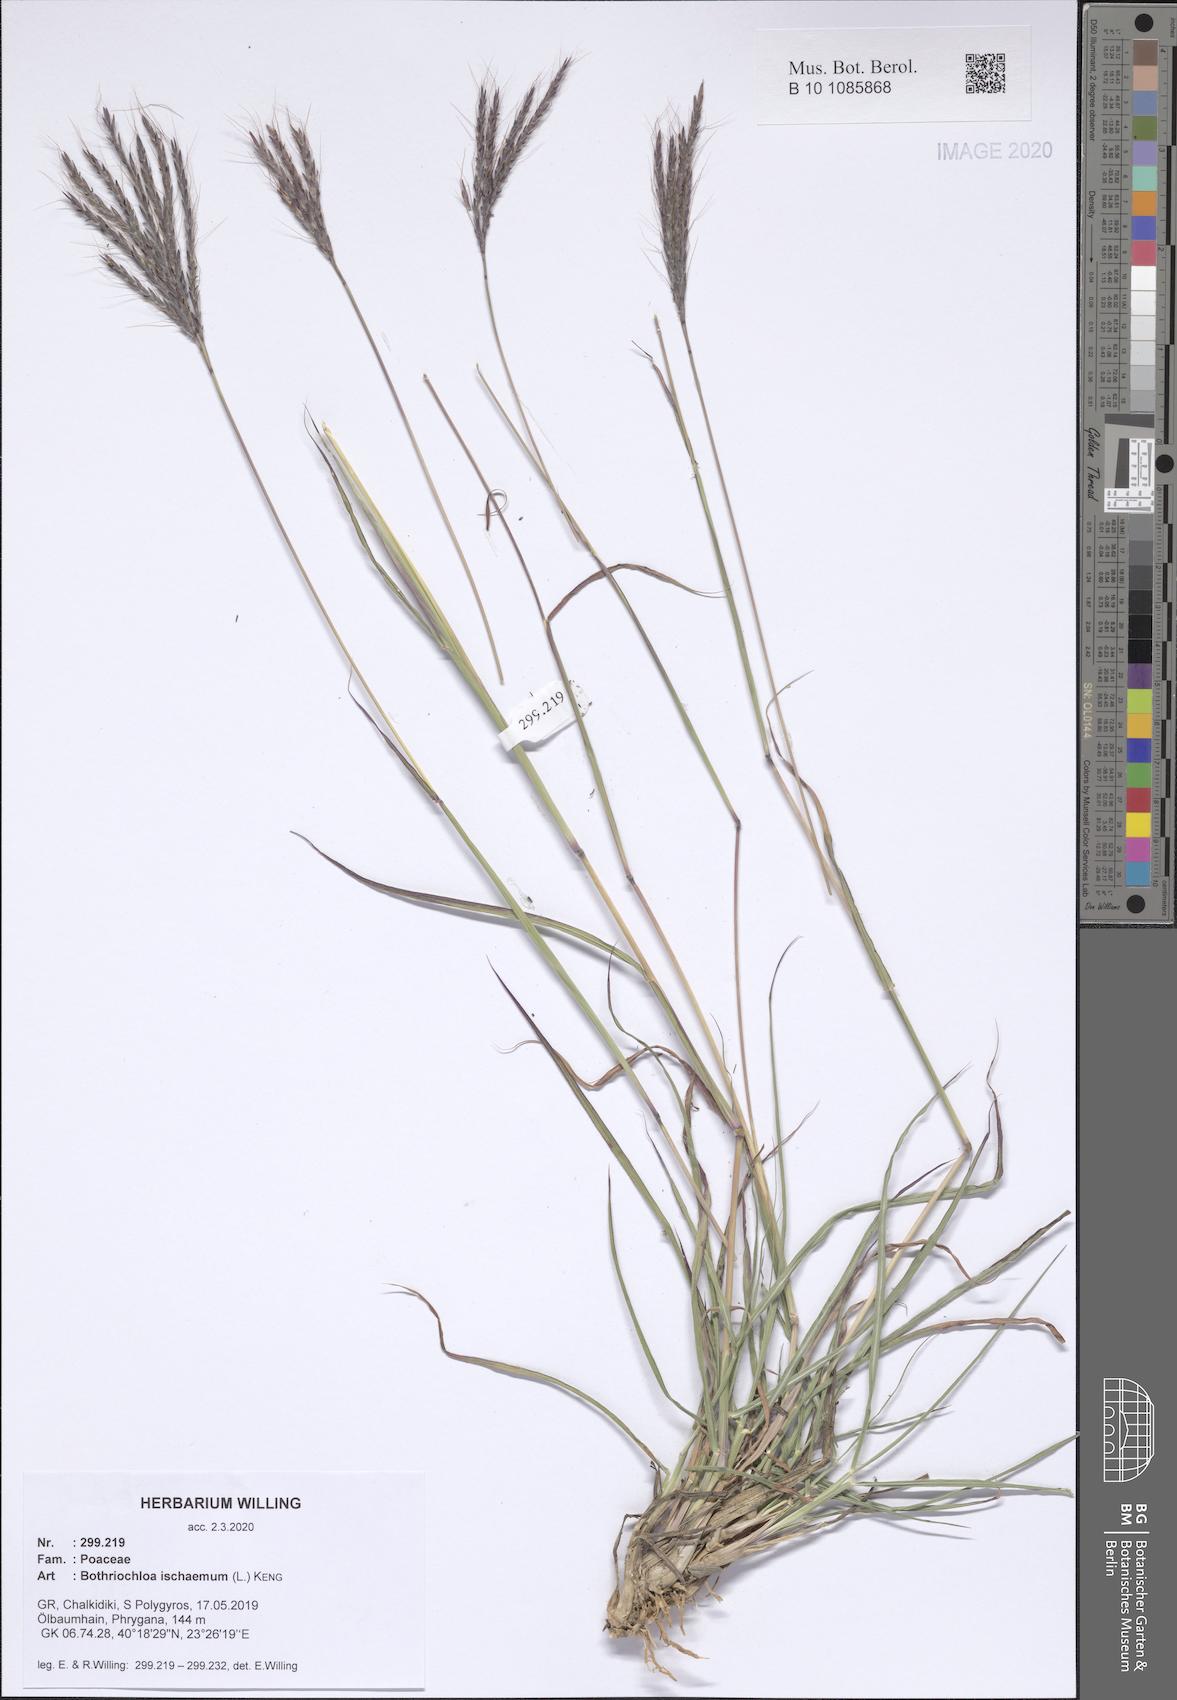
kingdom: Plantae
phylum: Tracheophyta
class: Liliopsida
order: Poales
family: Poaceae
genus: Bothriochloa
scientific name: Bothriochloa ischaemum
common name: Yellow bluestem
